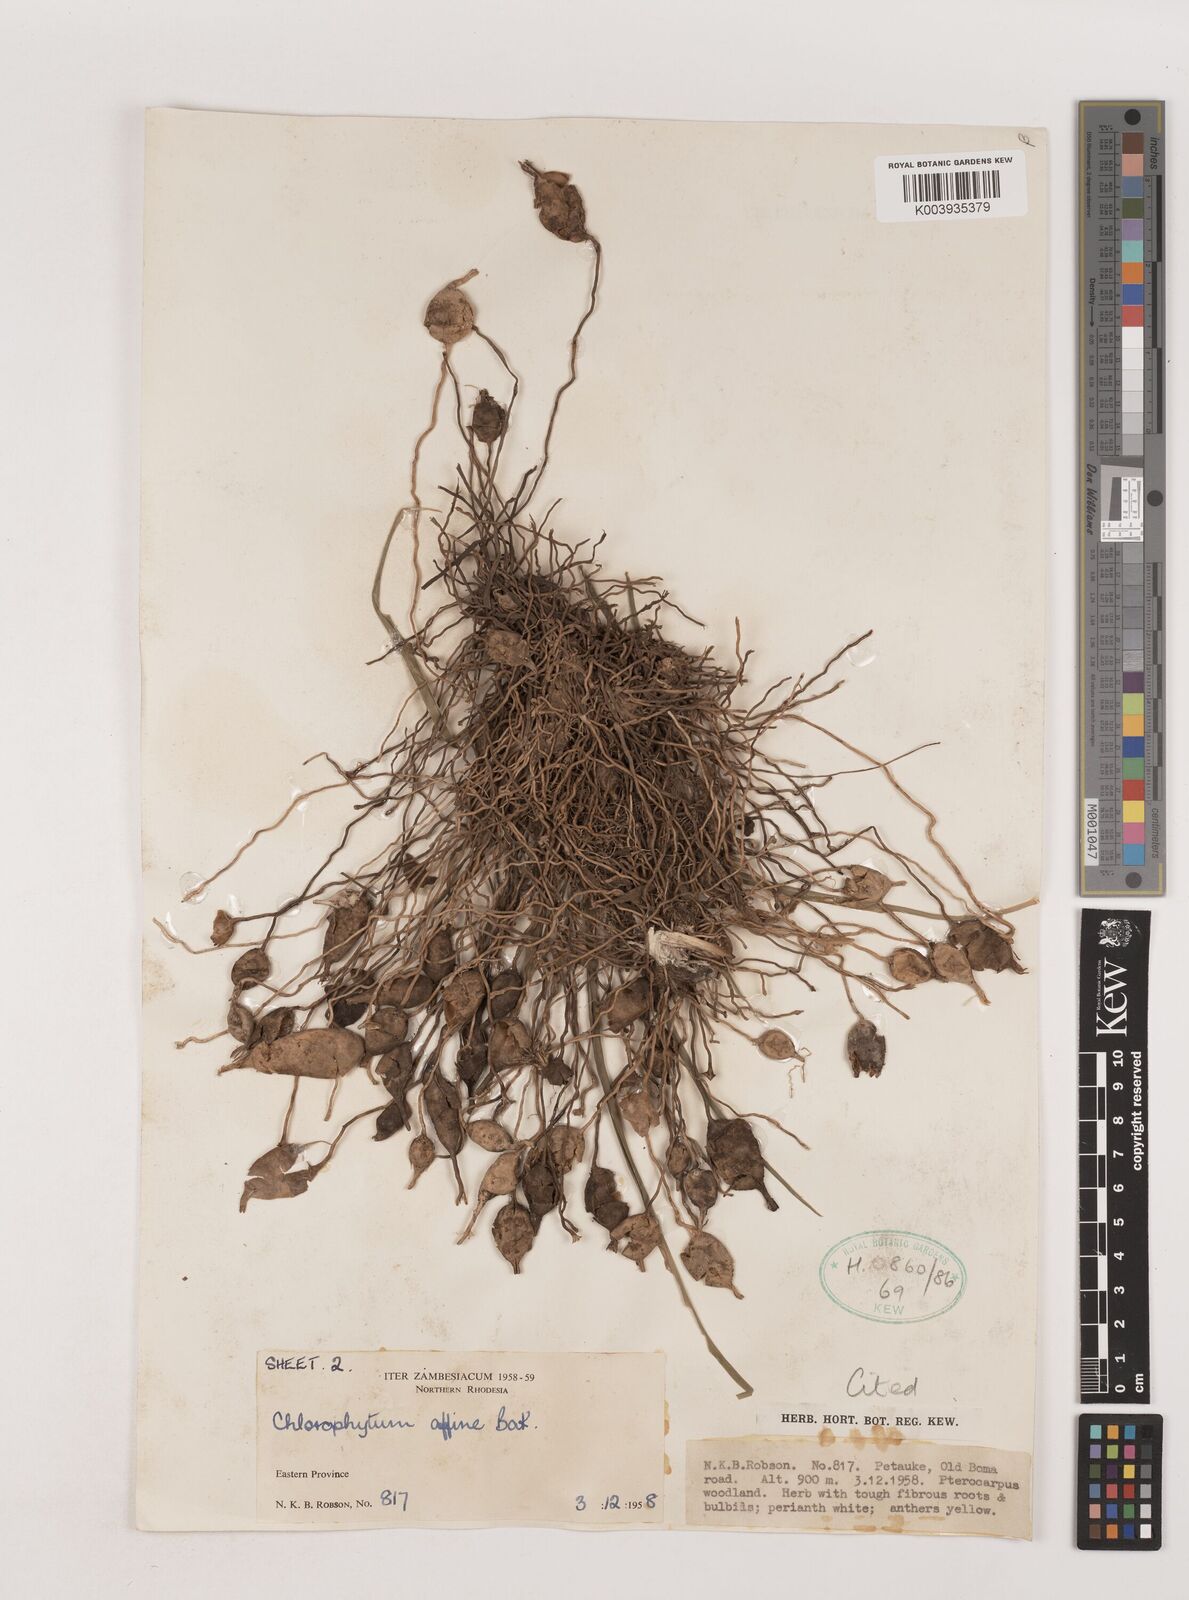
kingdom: Plantae
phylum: Tracheophyta
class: Liliopsida
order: Asparagales
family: Asparagaceae
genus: Chlorophytum
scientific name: Chlorophytum affine
